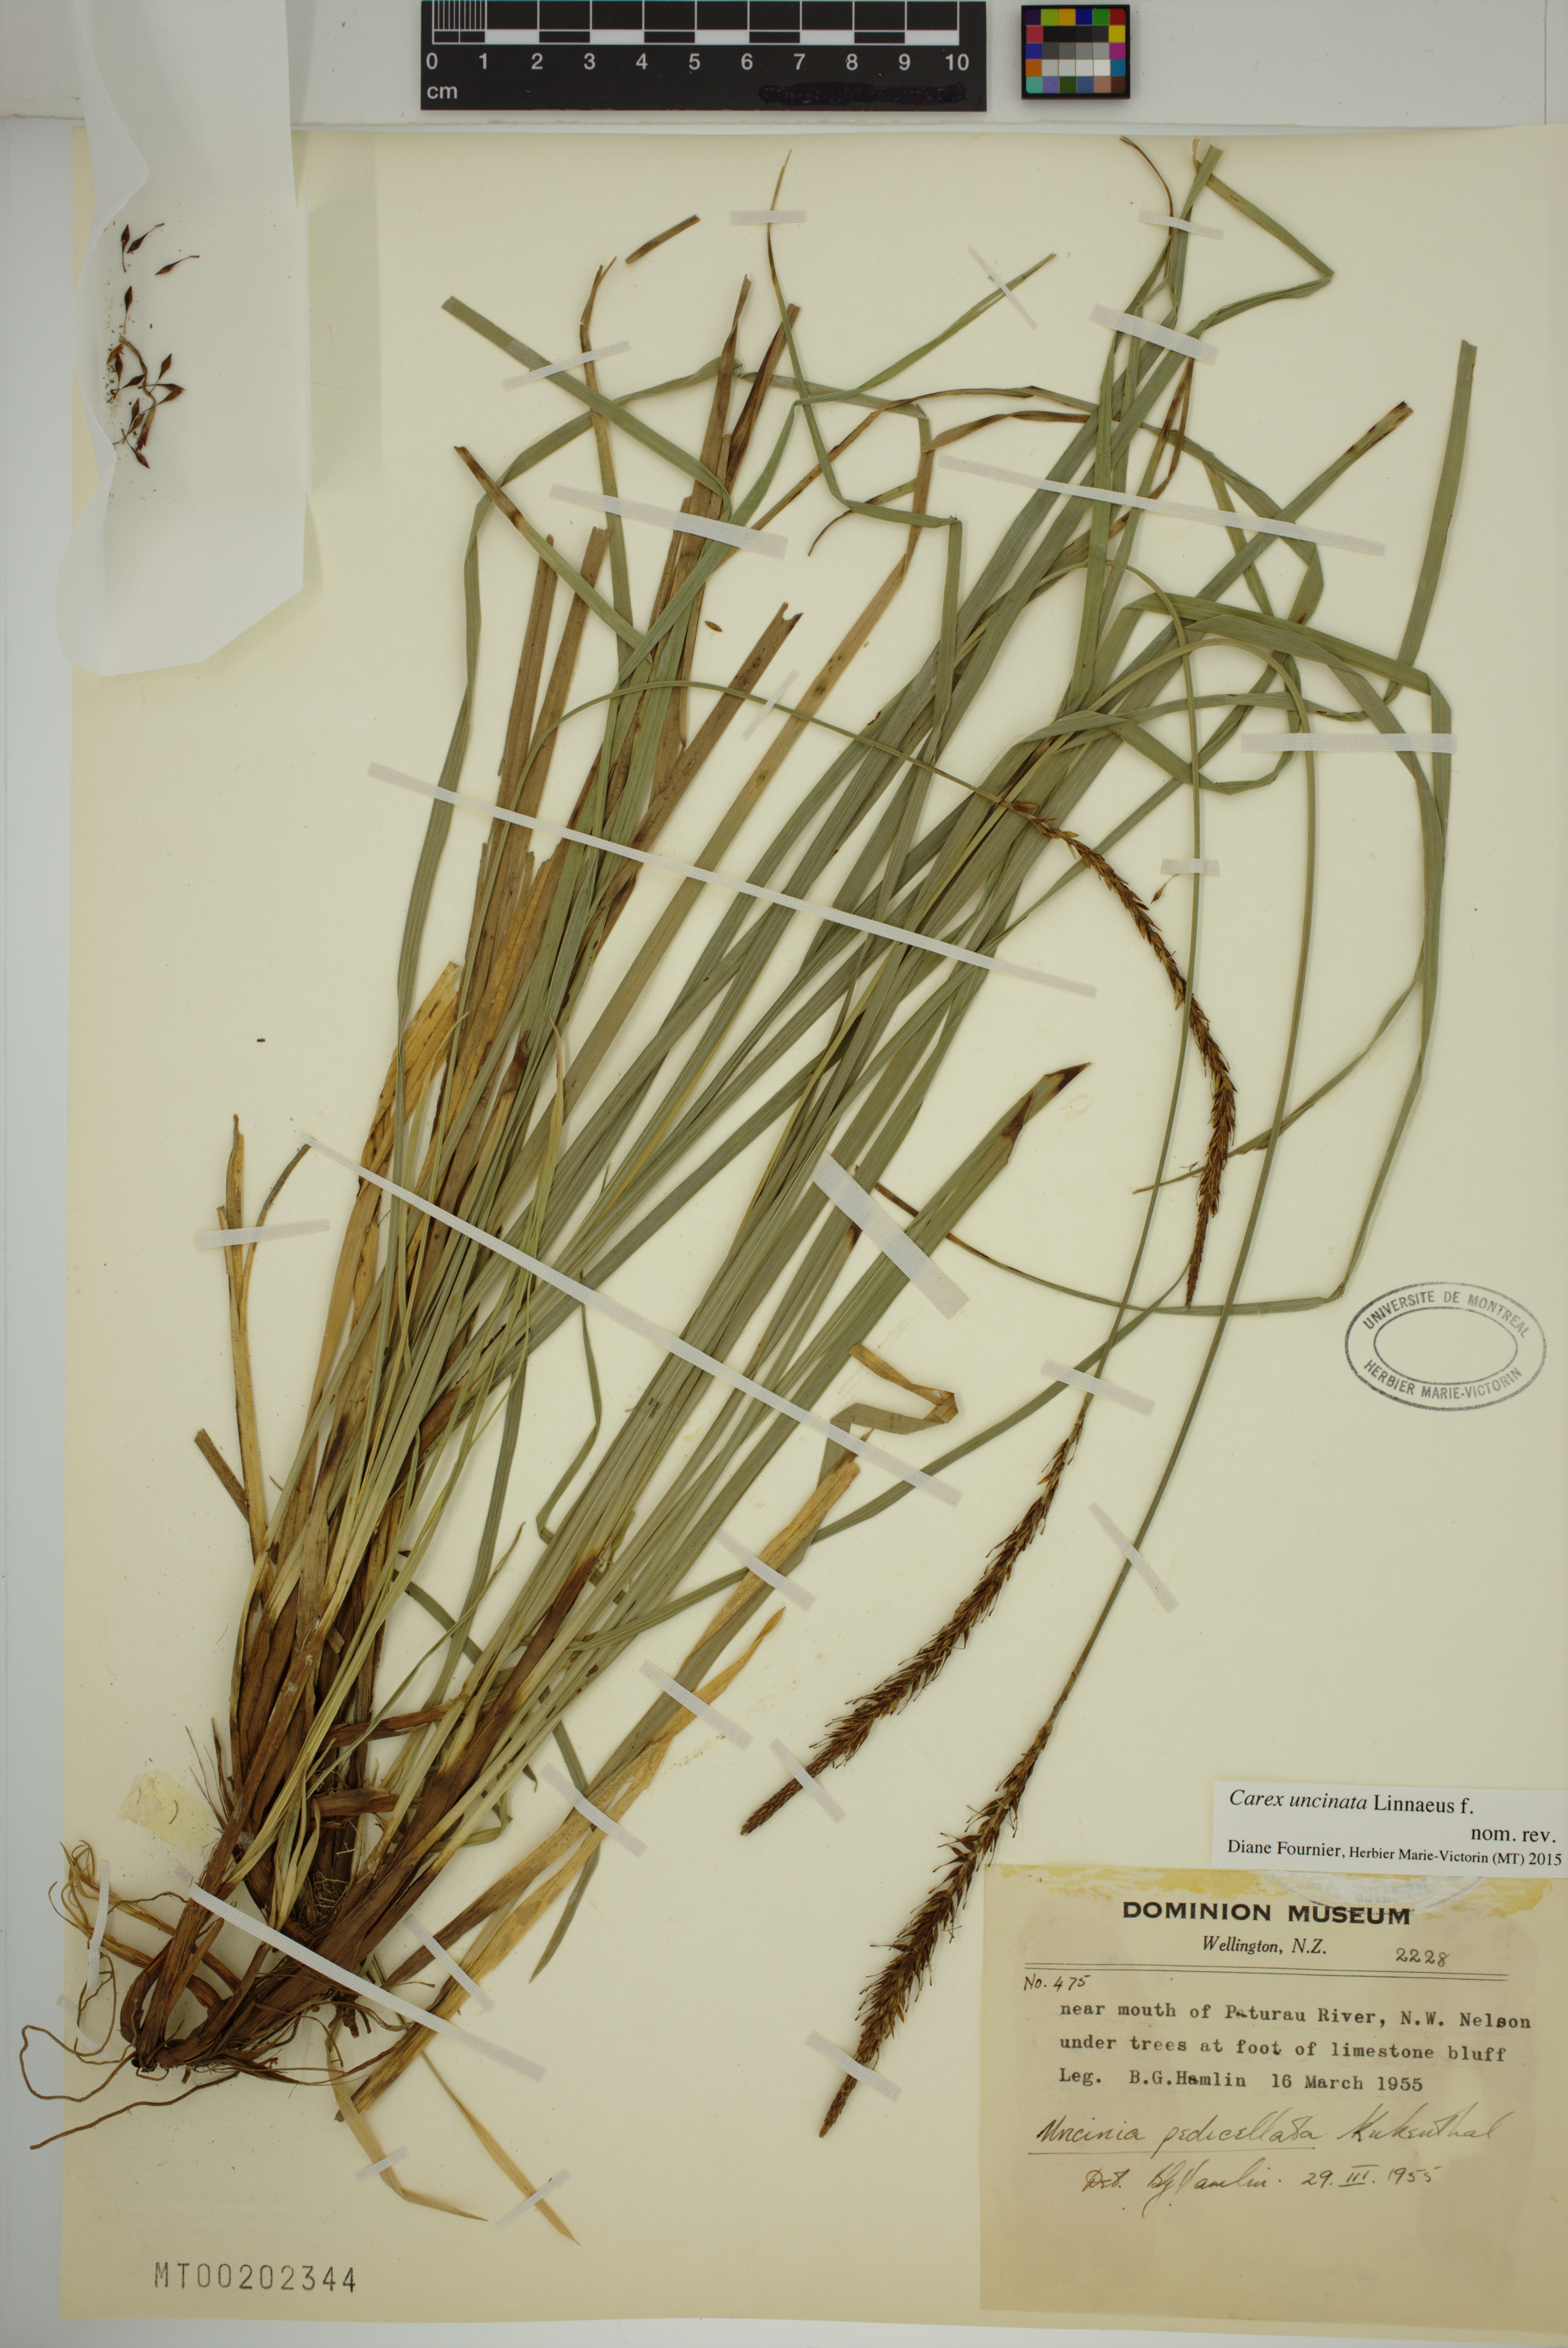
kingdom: Plantae
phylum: Tracheophyta
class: Liliopsida
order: Poales
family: Cyperaceae
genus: Carex
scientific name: Carex uncinata
